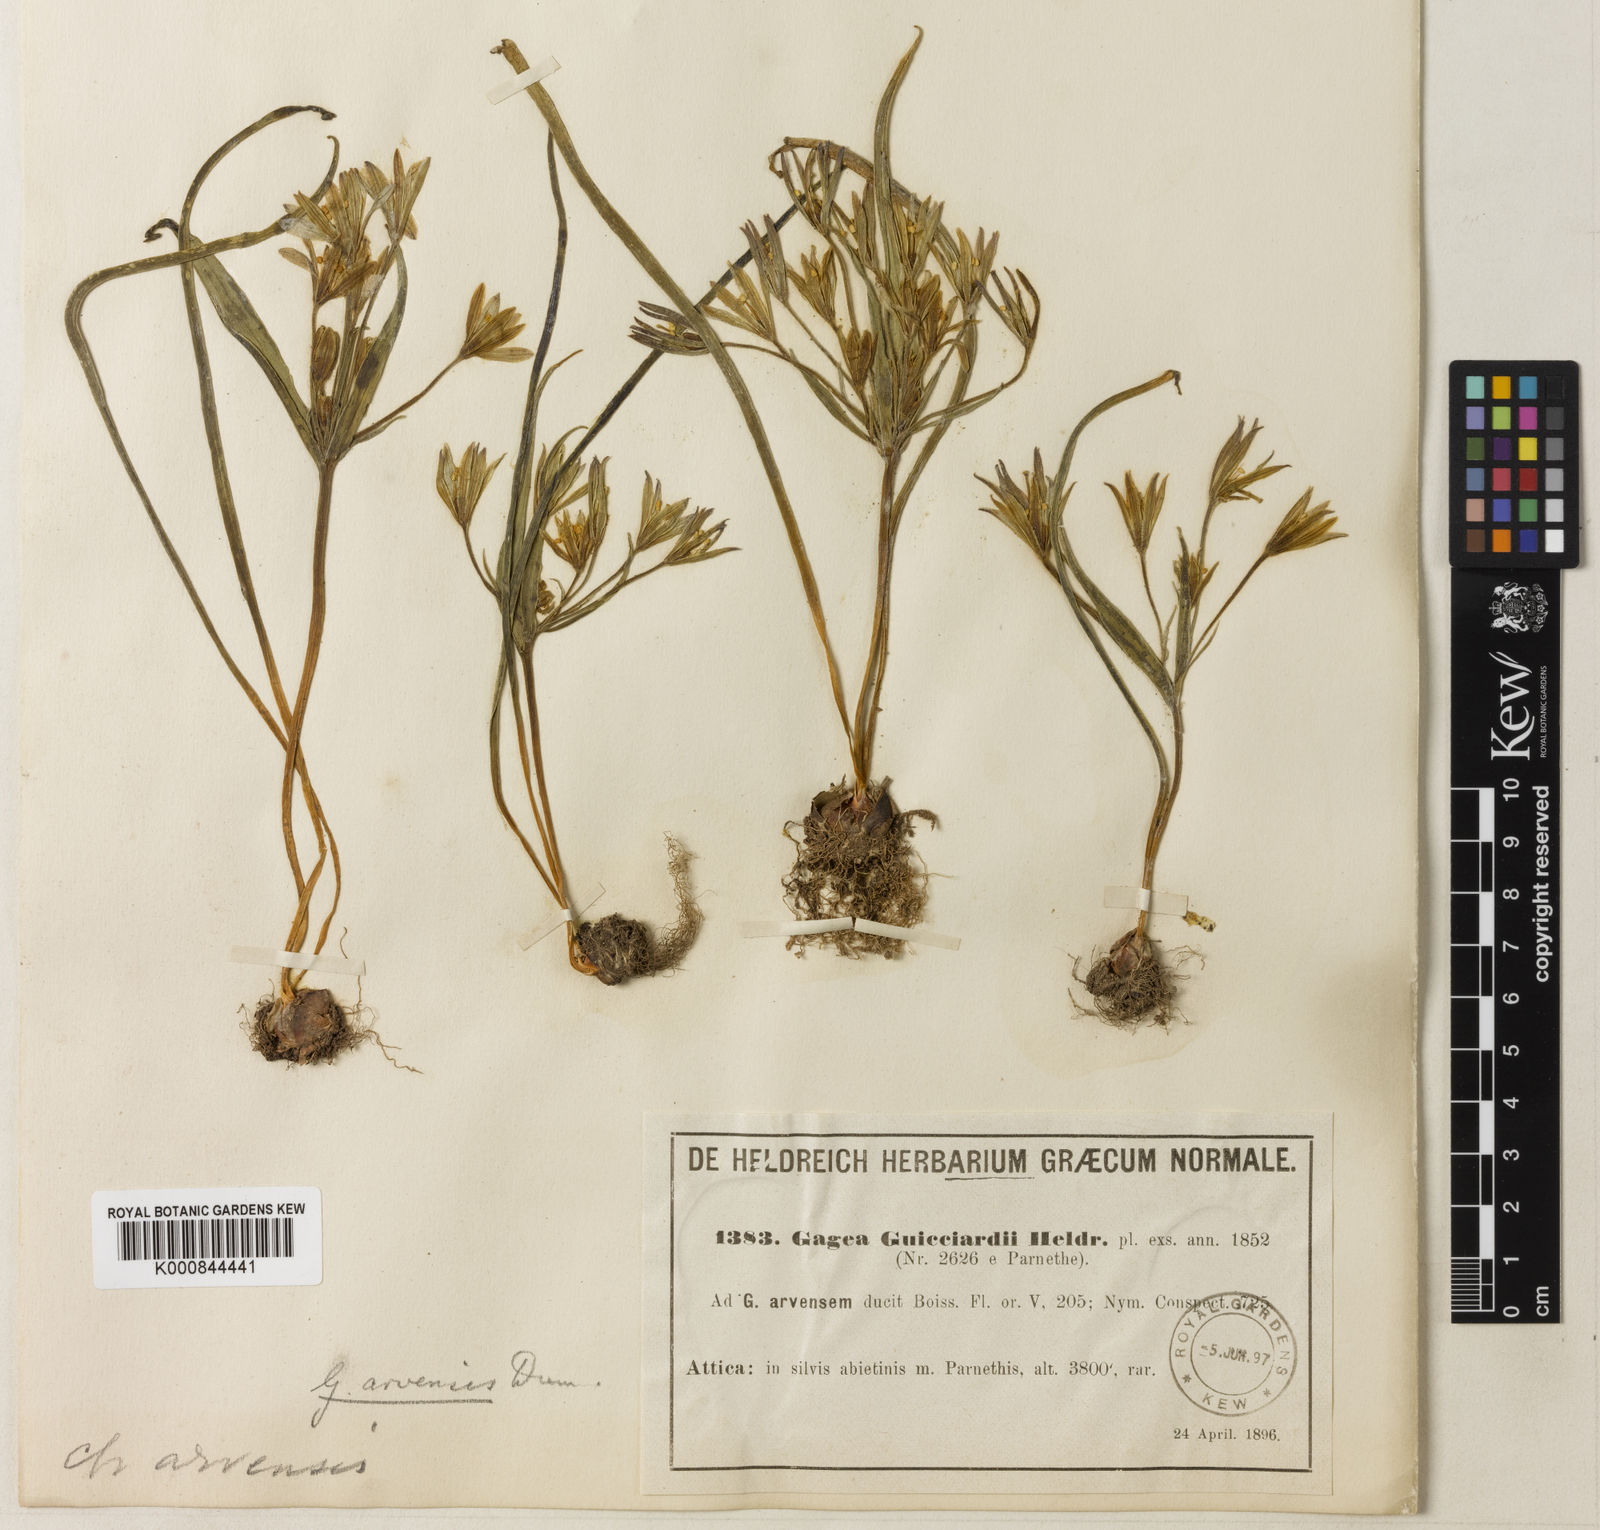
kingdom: Plantae
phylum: Tracheophyta
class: Liliopsida
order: Liliales
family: Liliaceae
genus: Gagea
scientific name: Gagea minima
